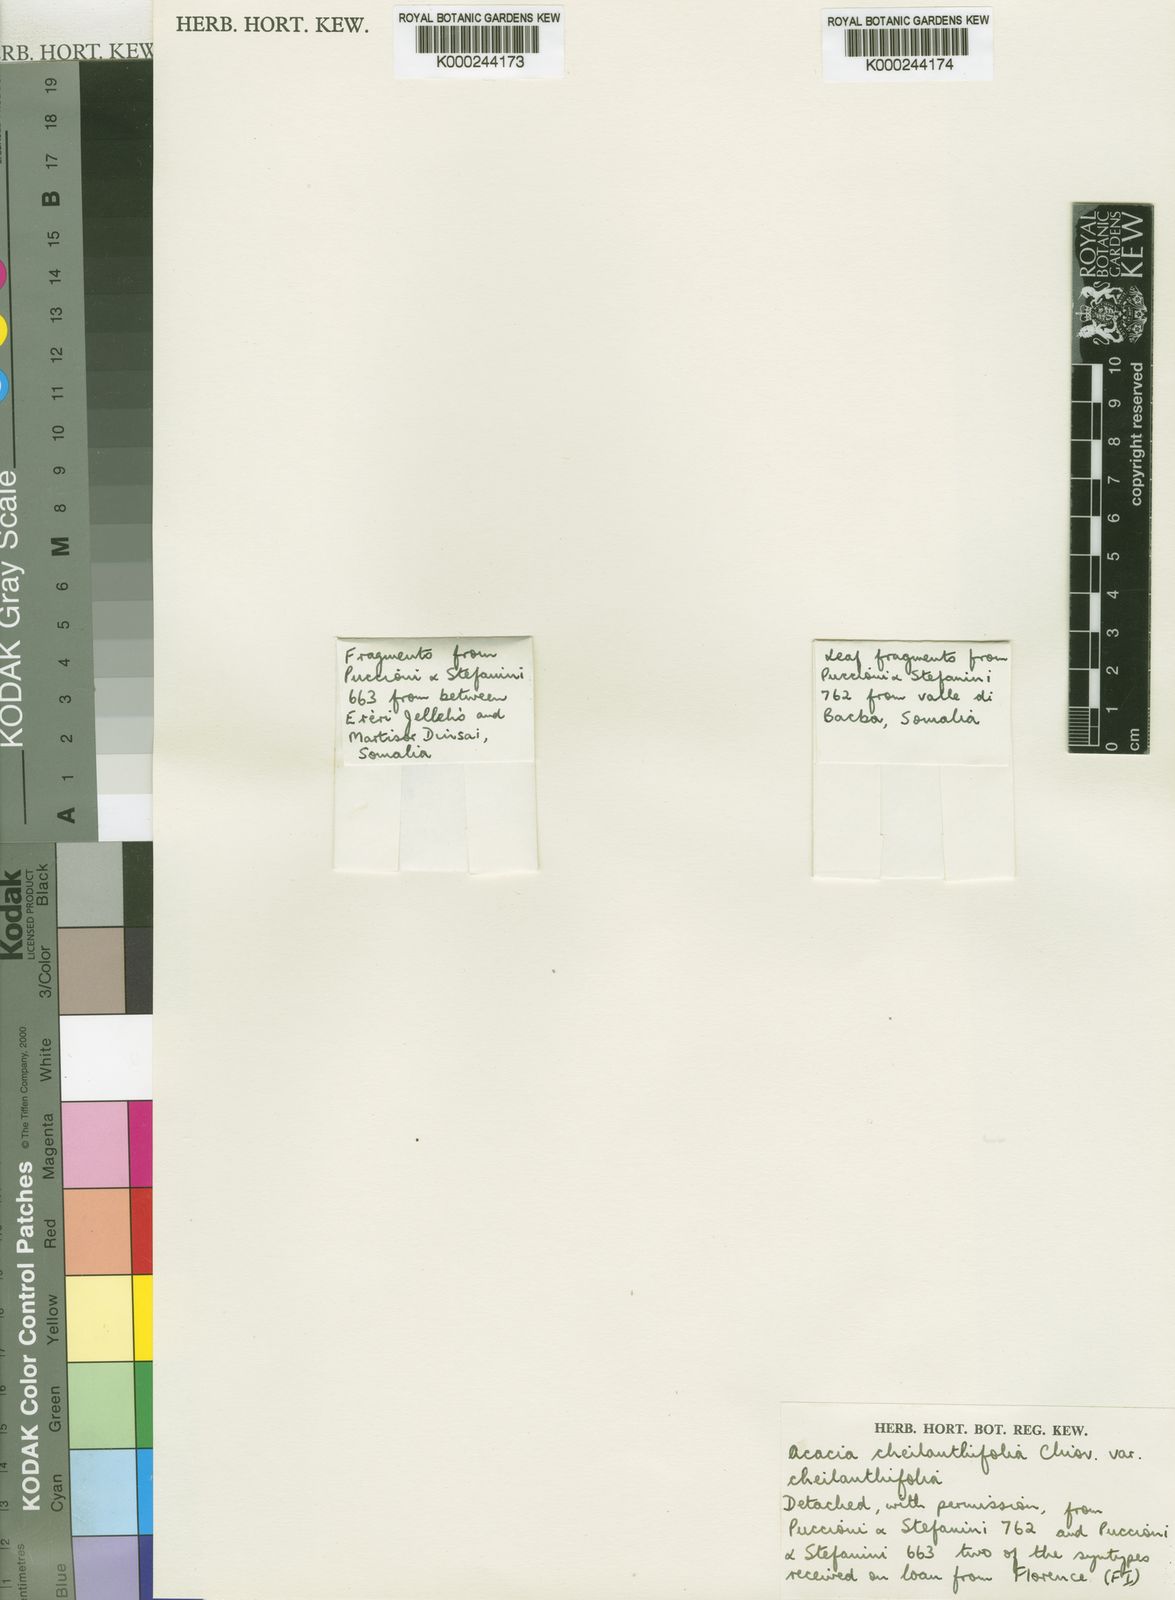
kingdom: Plantae
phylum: Tracheophyta
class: Magnoliopsida
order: Fabales
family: Fabaceae
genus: Senegalia
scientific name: Senegalia cheilanthifolia
